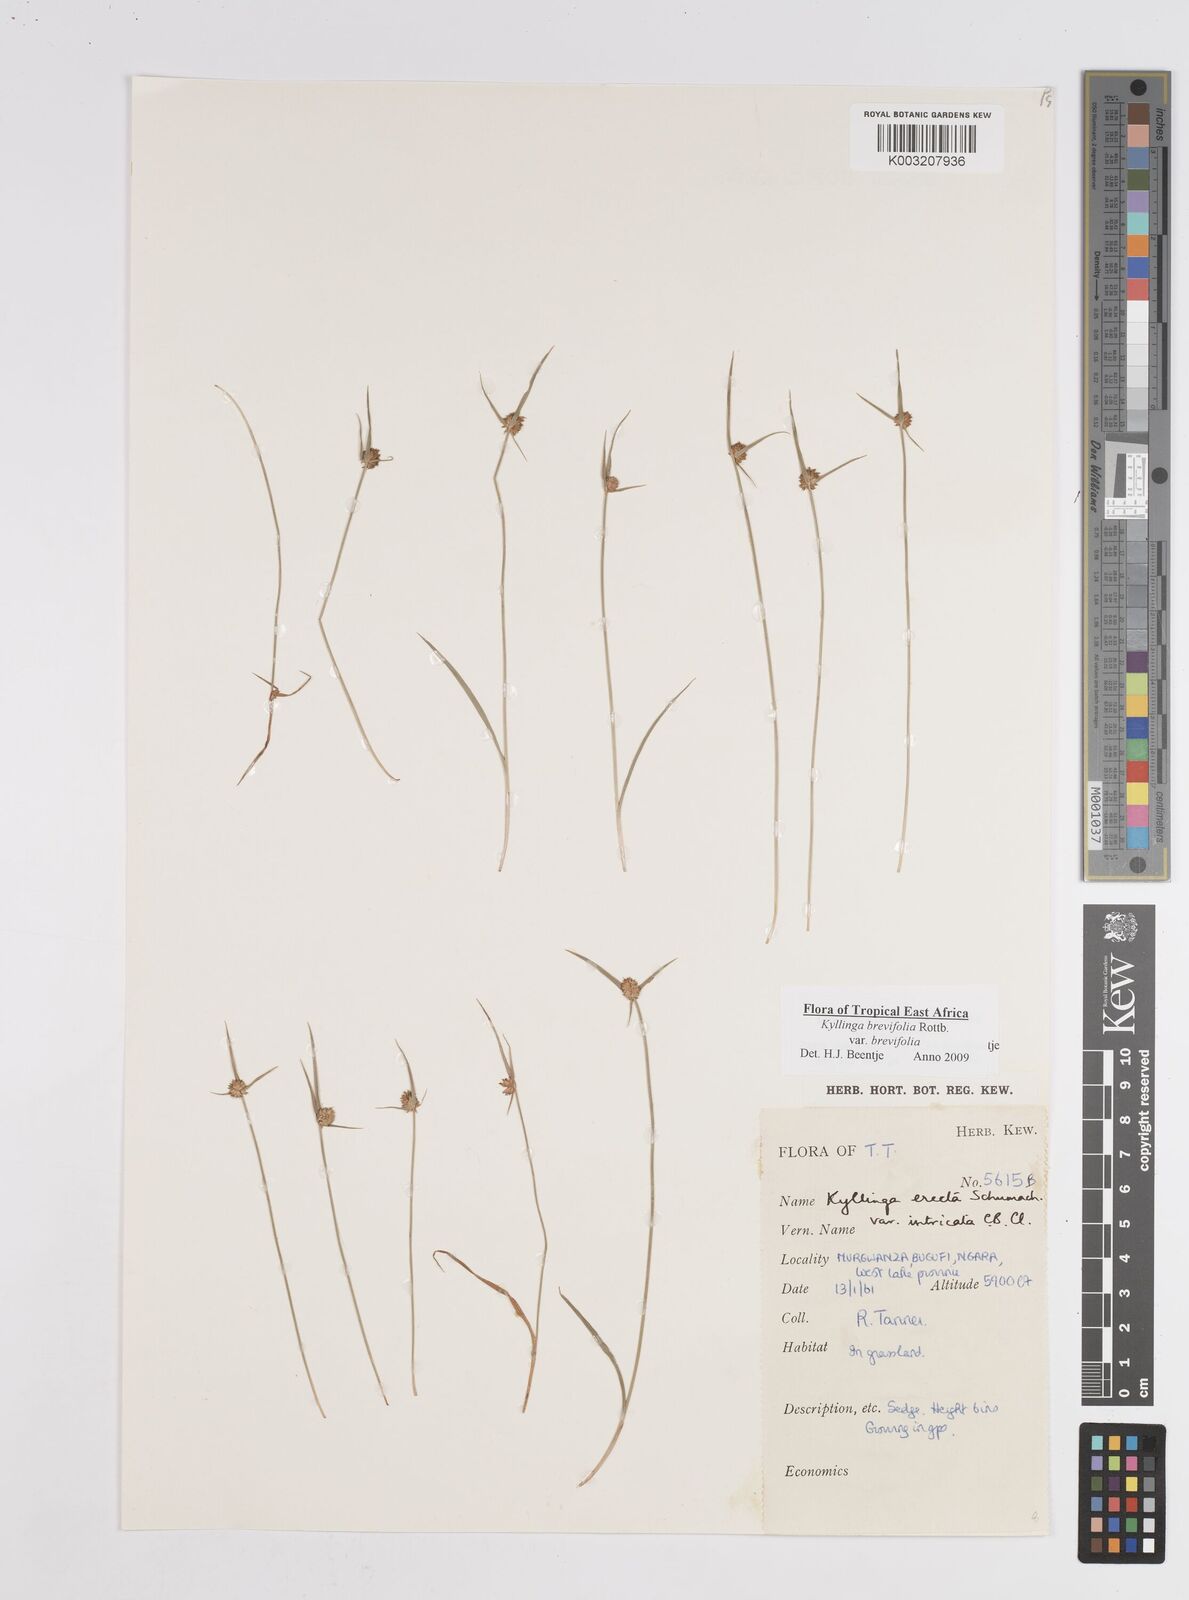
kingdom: Plantae
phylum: Tracheophyta
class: Liliopsida
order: Poales
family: Cyperaceae
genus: Cyperus
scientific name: Cyperus brevifolius
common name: Globe kyllinga
